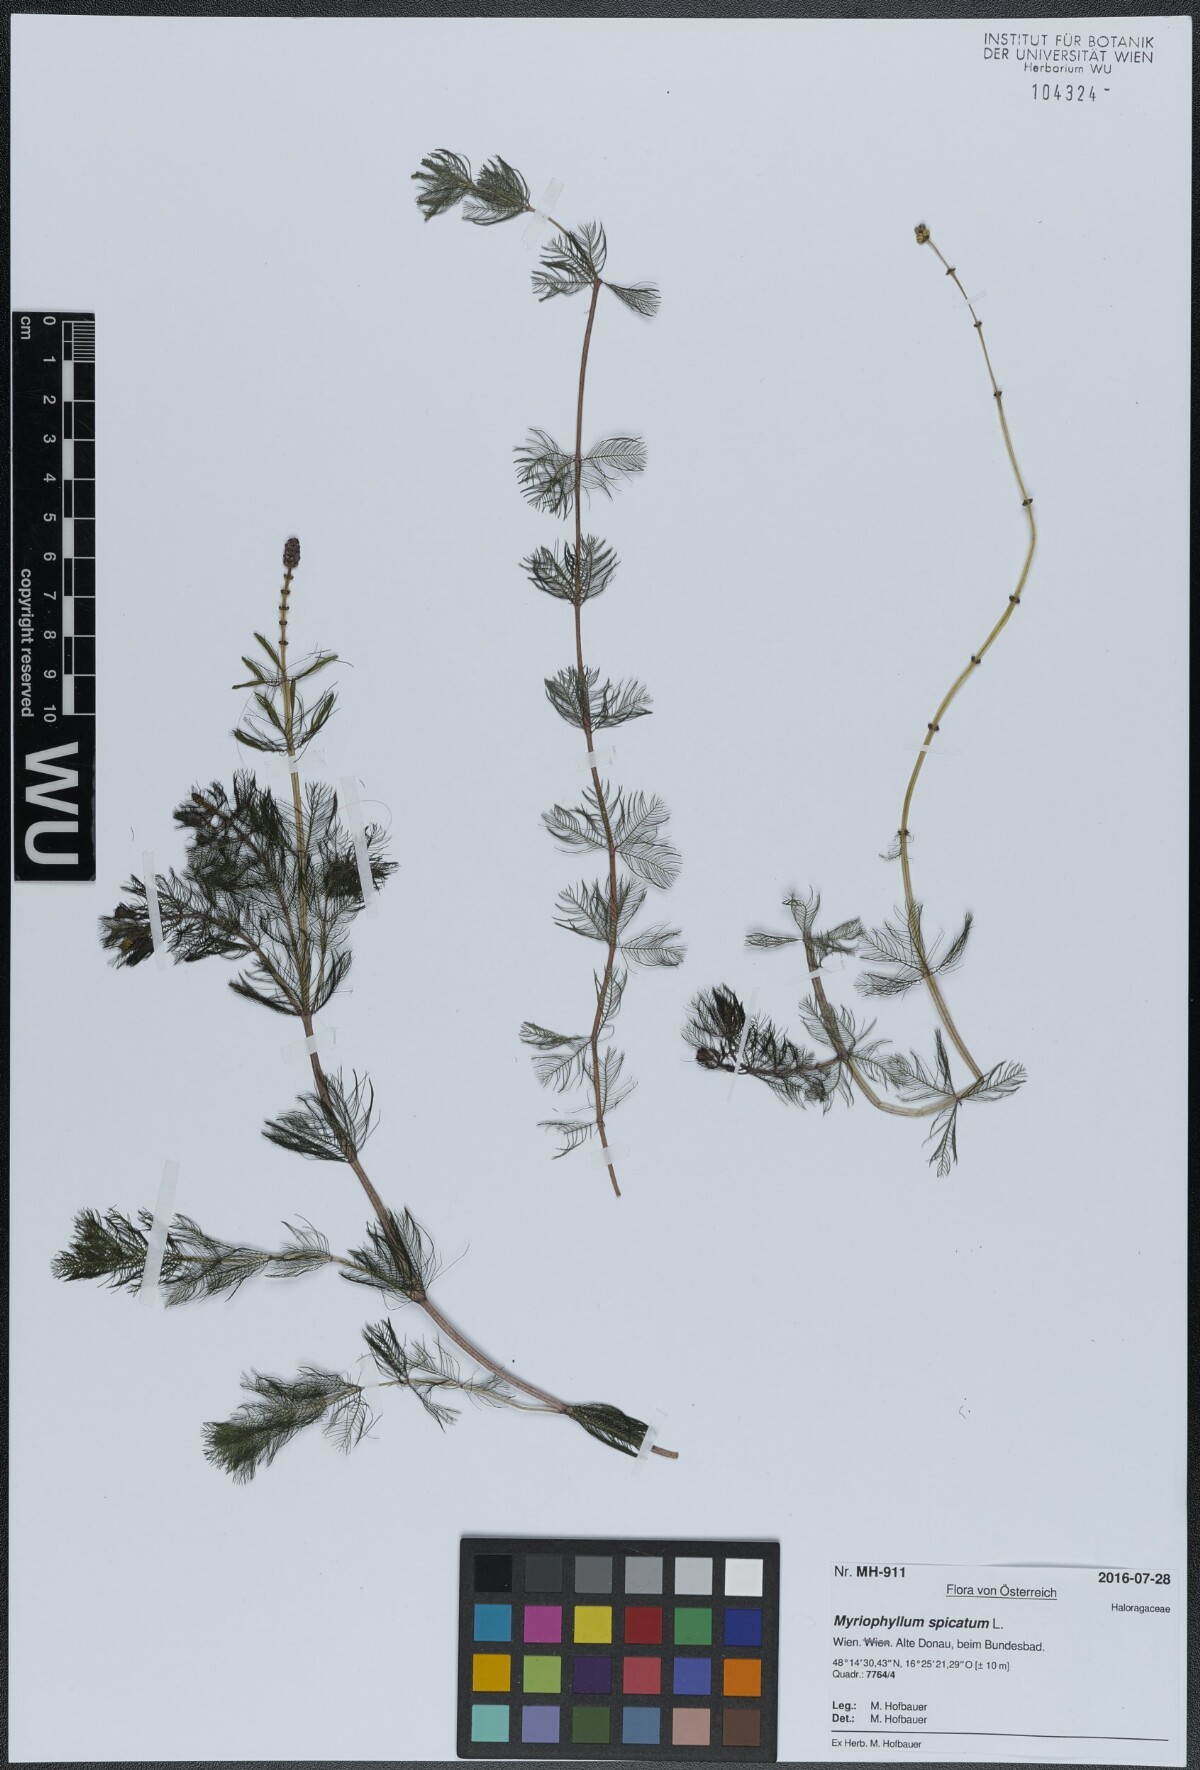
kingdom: Plantae
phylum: Tracheophyta
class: Magnoliopsida
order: Saxifragales
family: Haloragaceae
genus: Myriophyllum
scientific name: Myriophyllum spicatum
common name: Spiked water-milfoil
